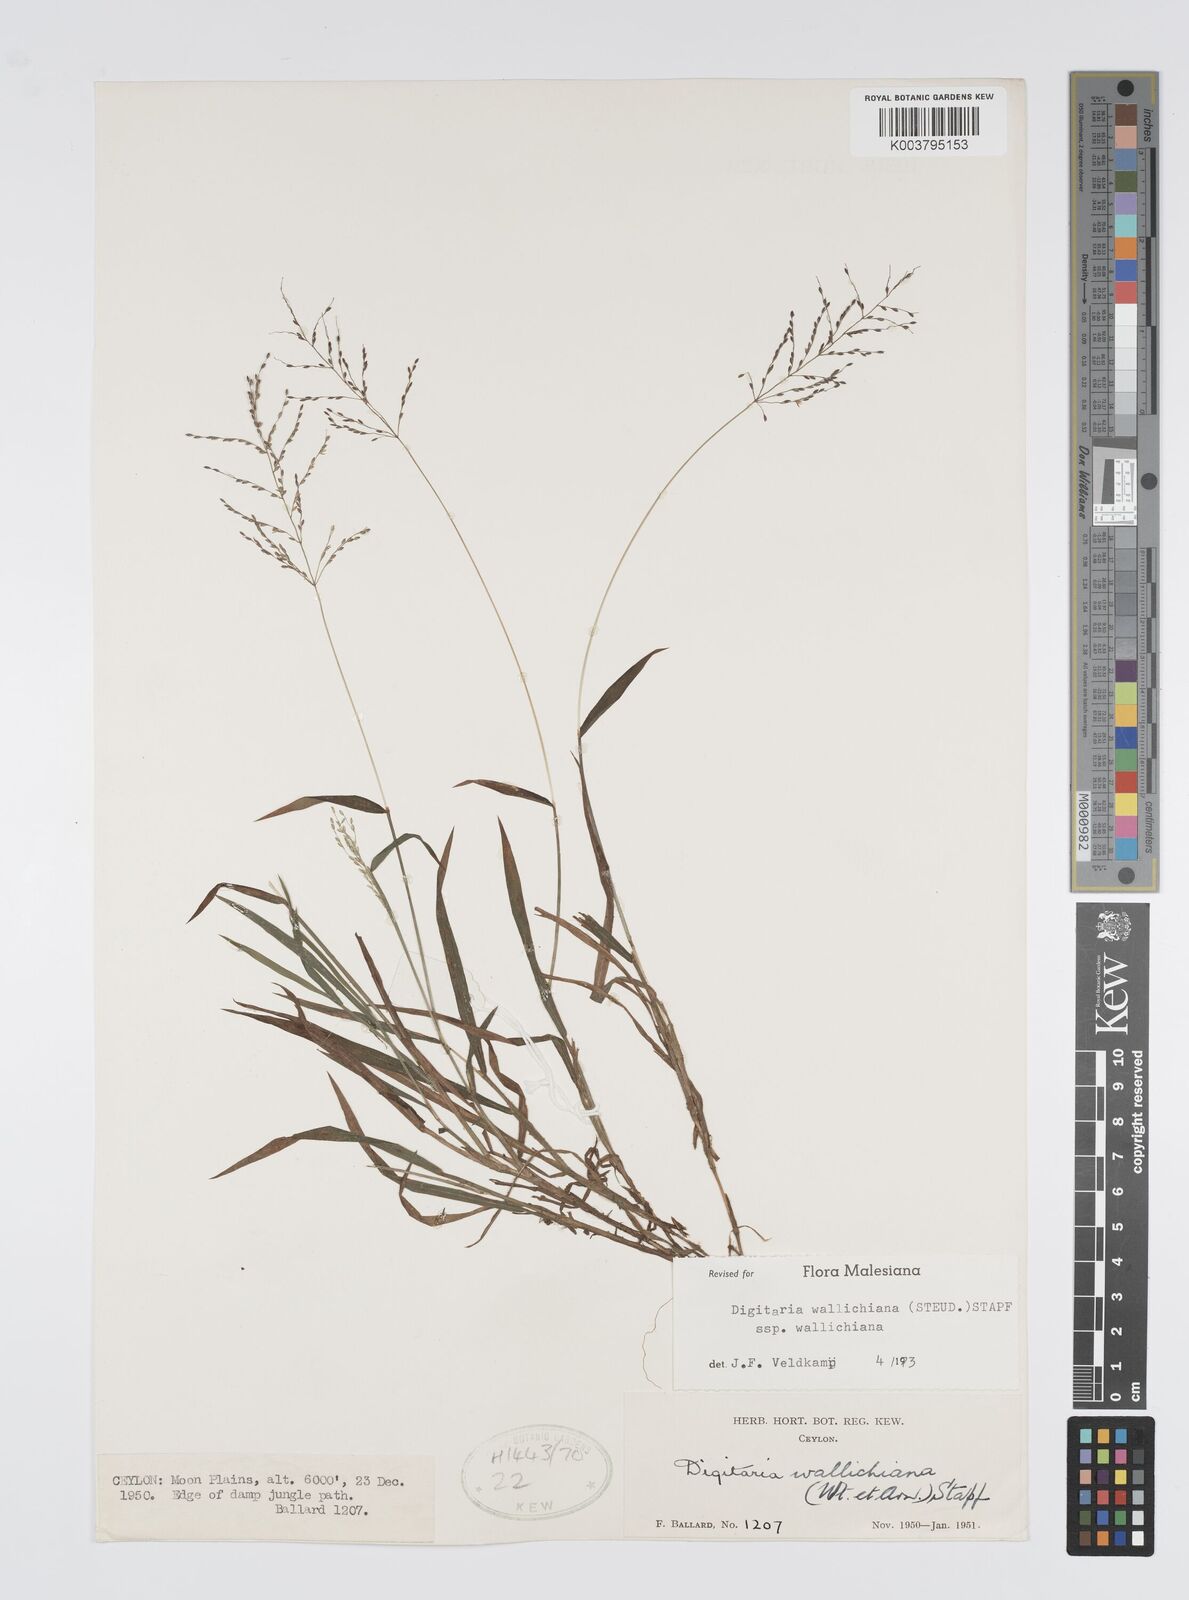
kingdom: Plantae
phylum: Tracheophyta
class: Liliopsida
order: Poales
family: Poaceae
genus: Digitaria
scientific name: Digitaria wallichiana
